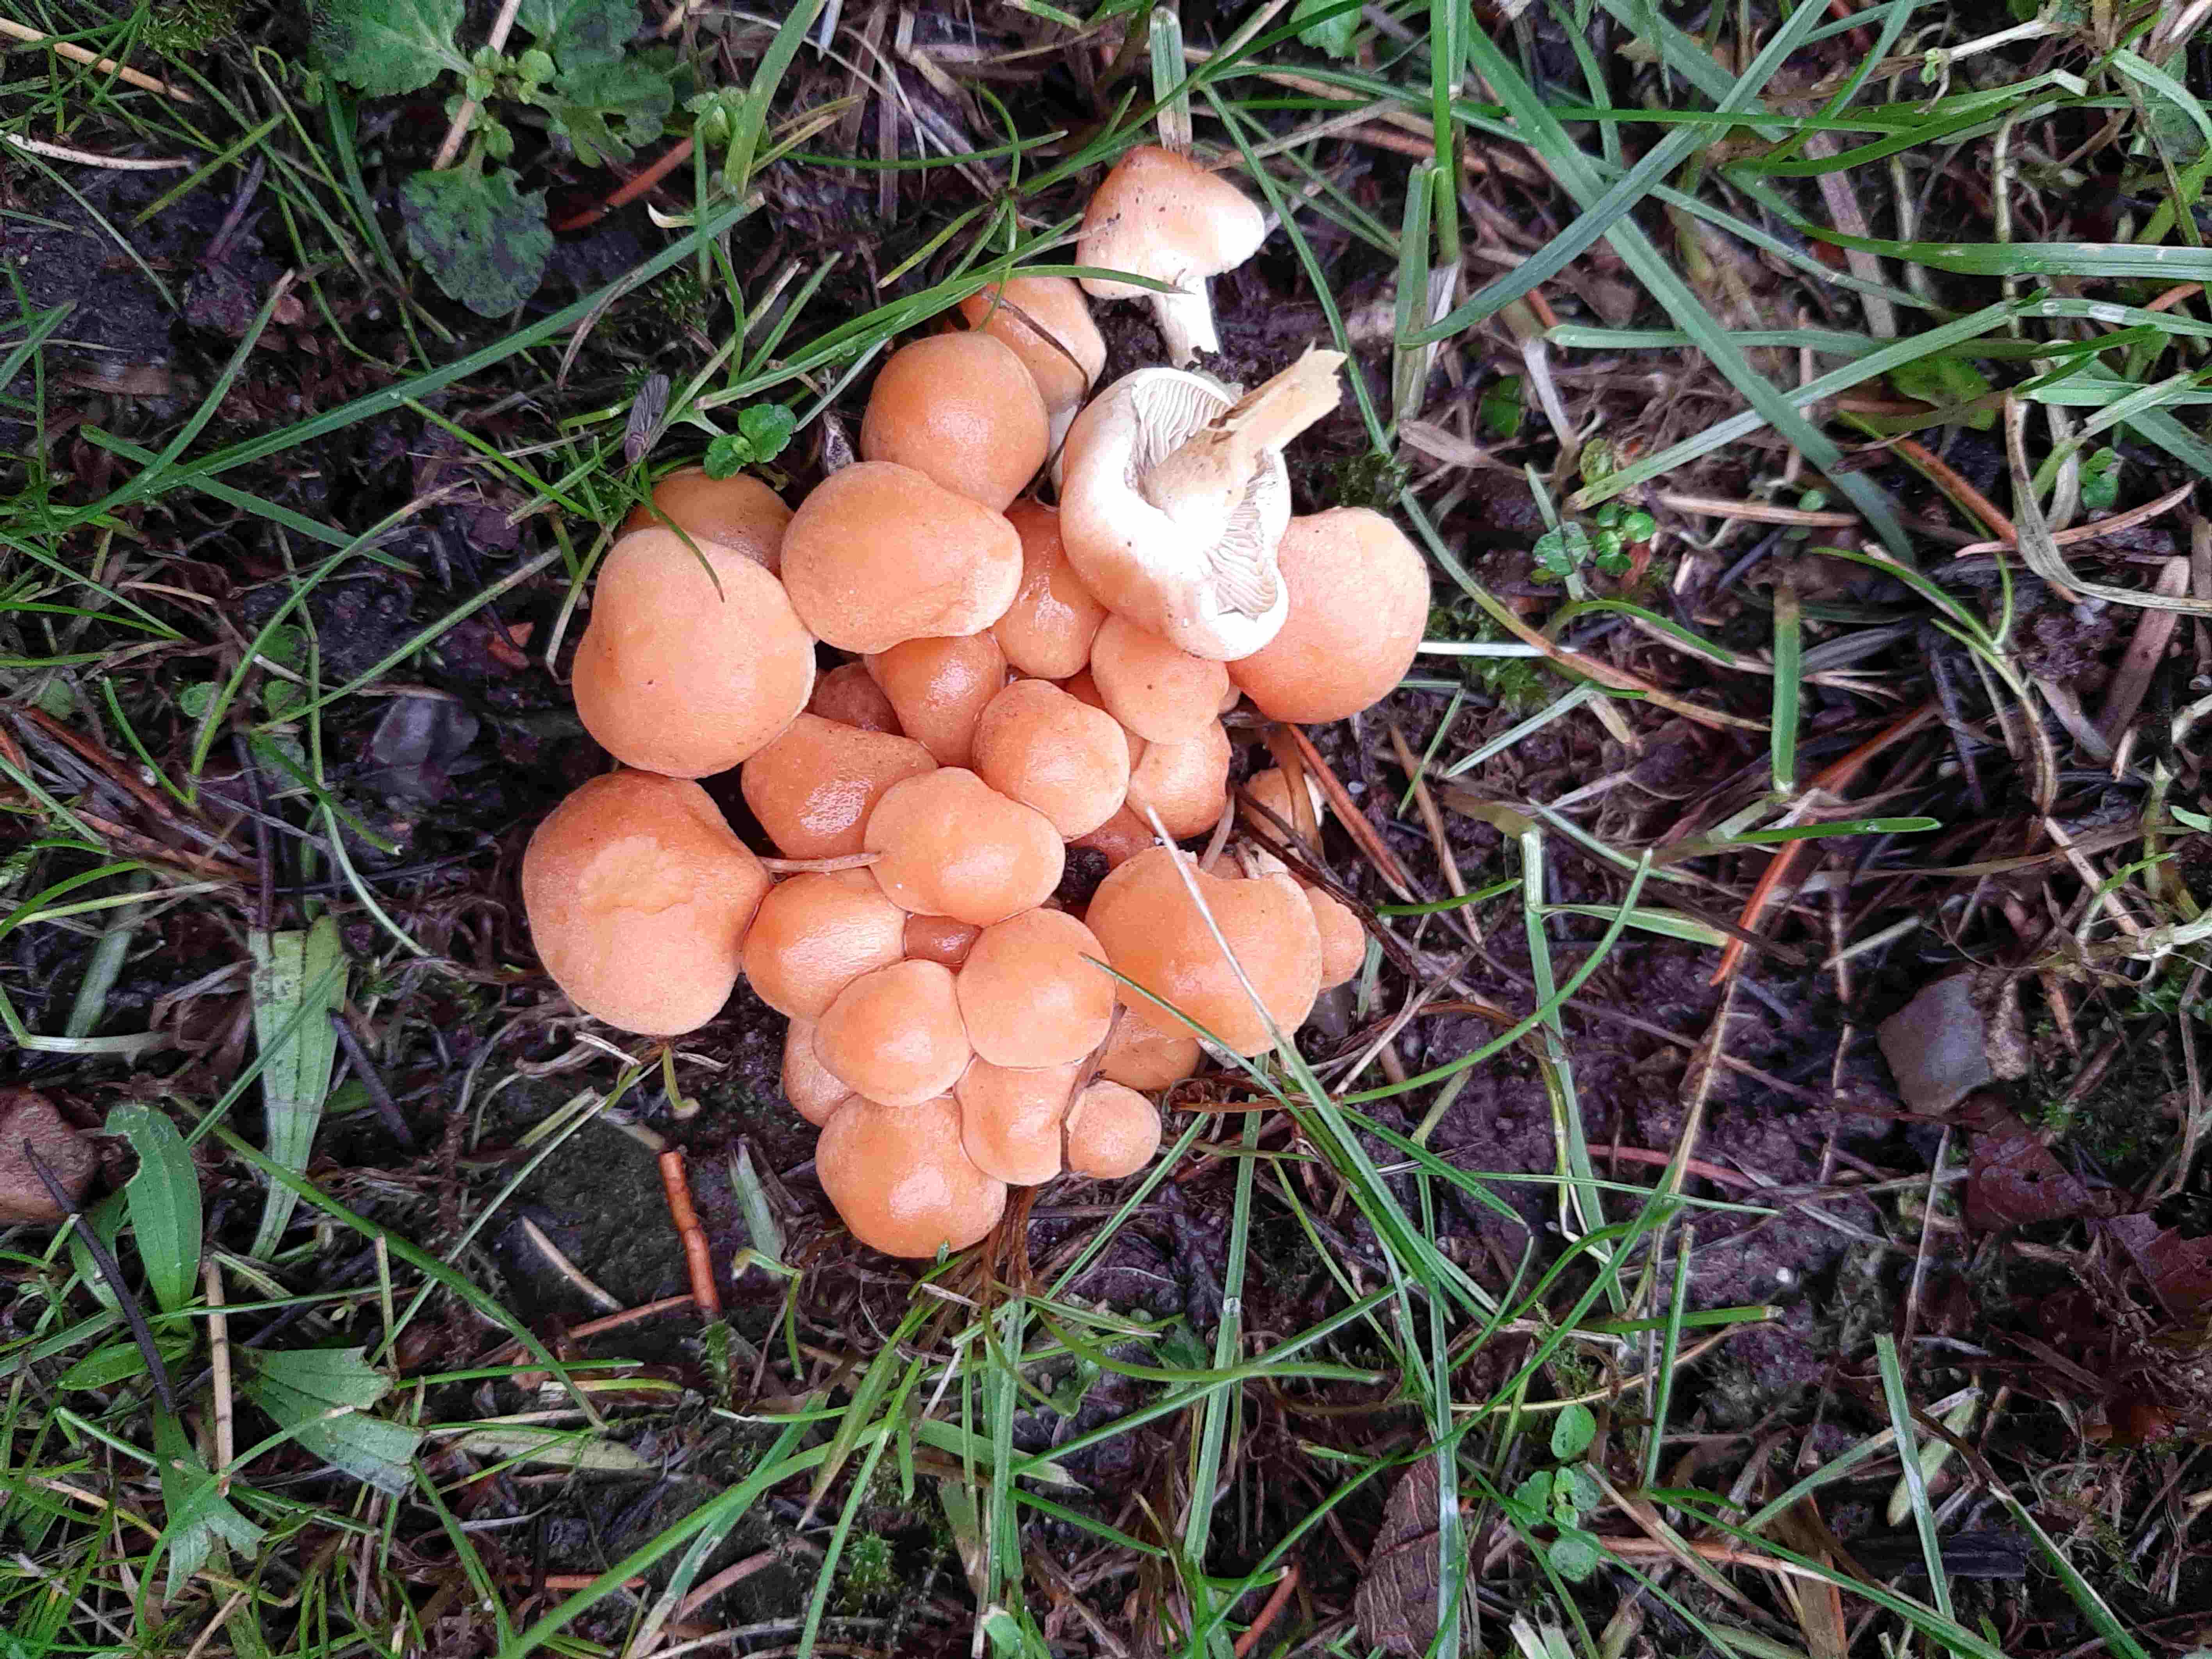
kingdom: Fungi
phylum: Basidiomycota
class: Agaricomycetes
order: Agaricales
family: Strophariaceae
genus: Hypholoma
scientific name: Hypholoma fasciculare
